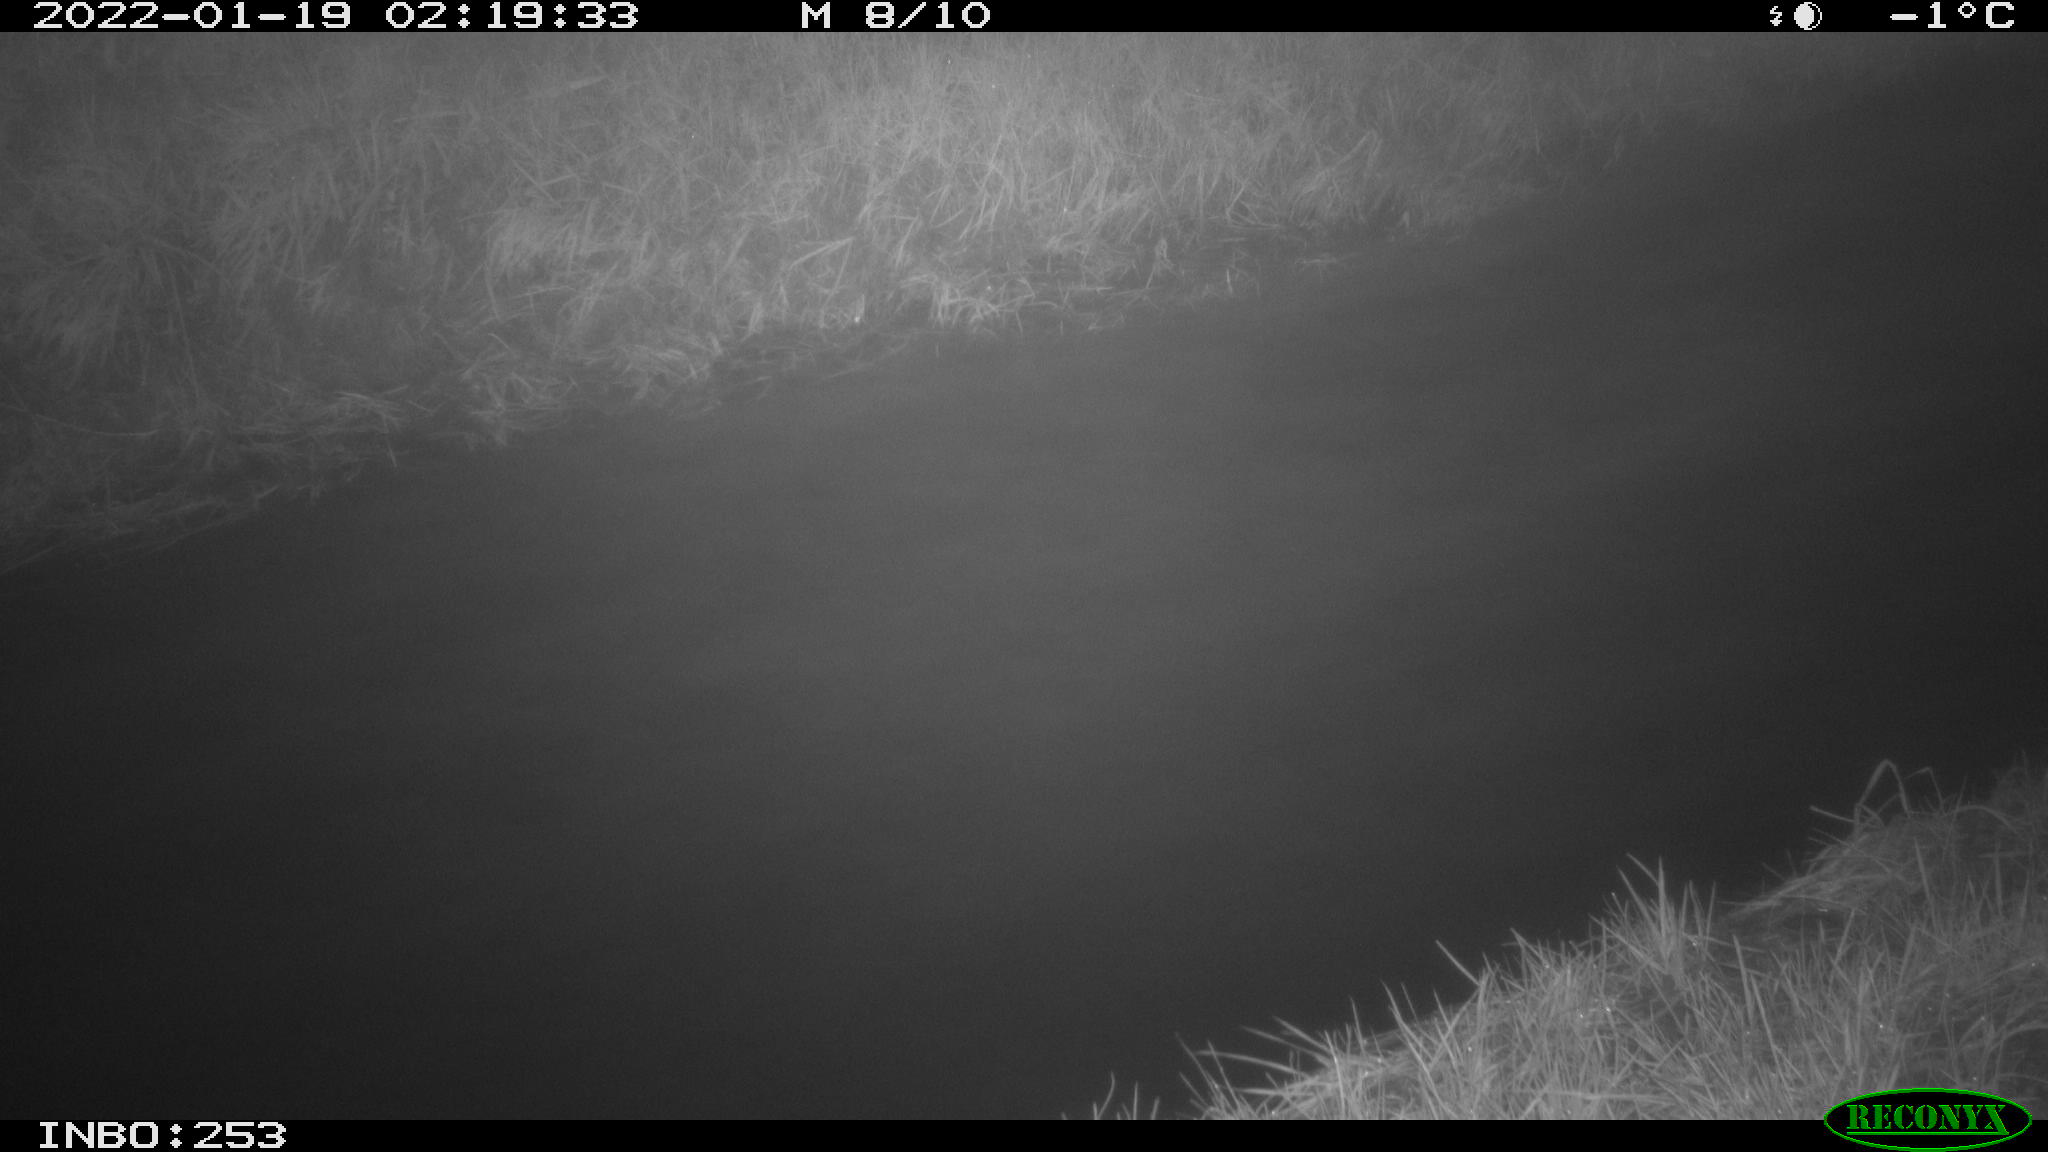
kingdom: Animalia
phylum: Chordata
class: Aves
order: Anseriformes
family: Anatidae
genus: Anas
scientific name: Anas platyrhynchos
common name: Mallard
